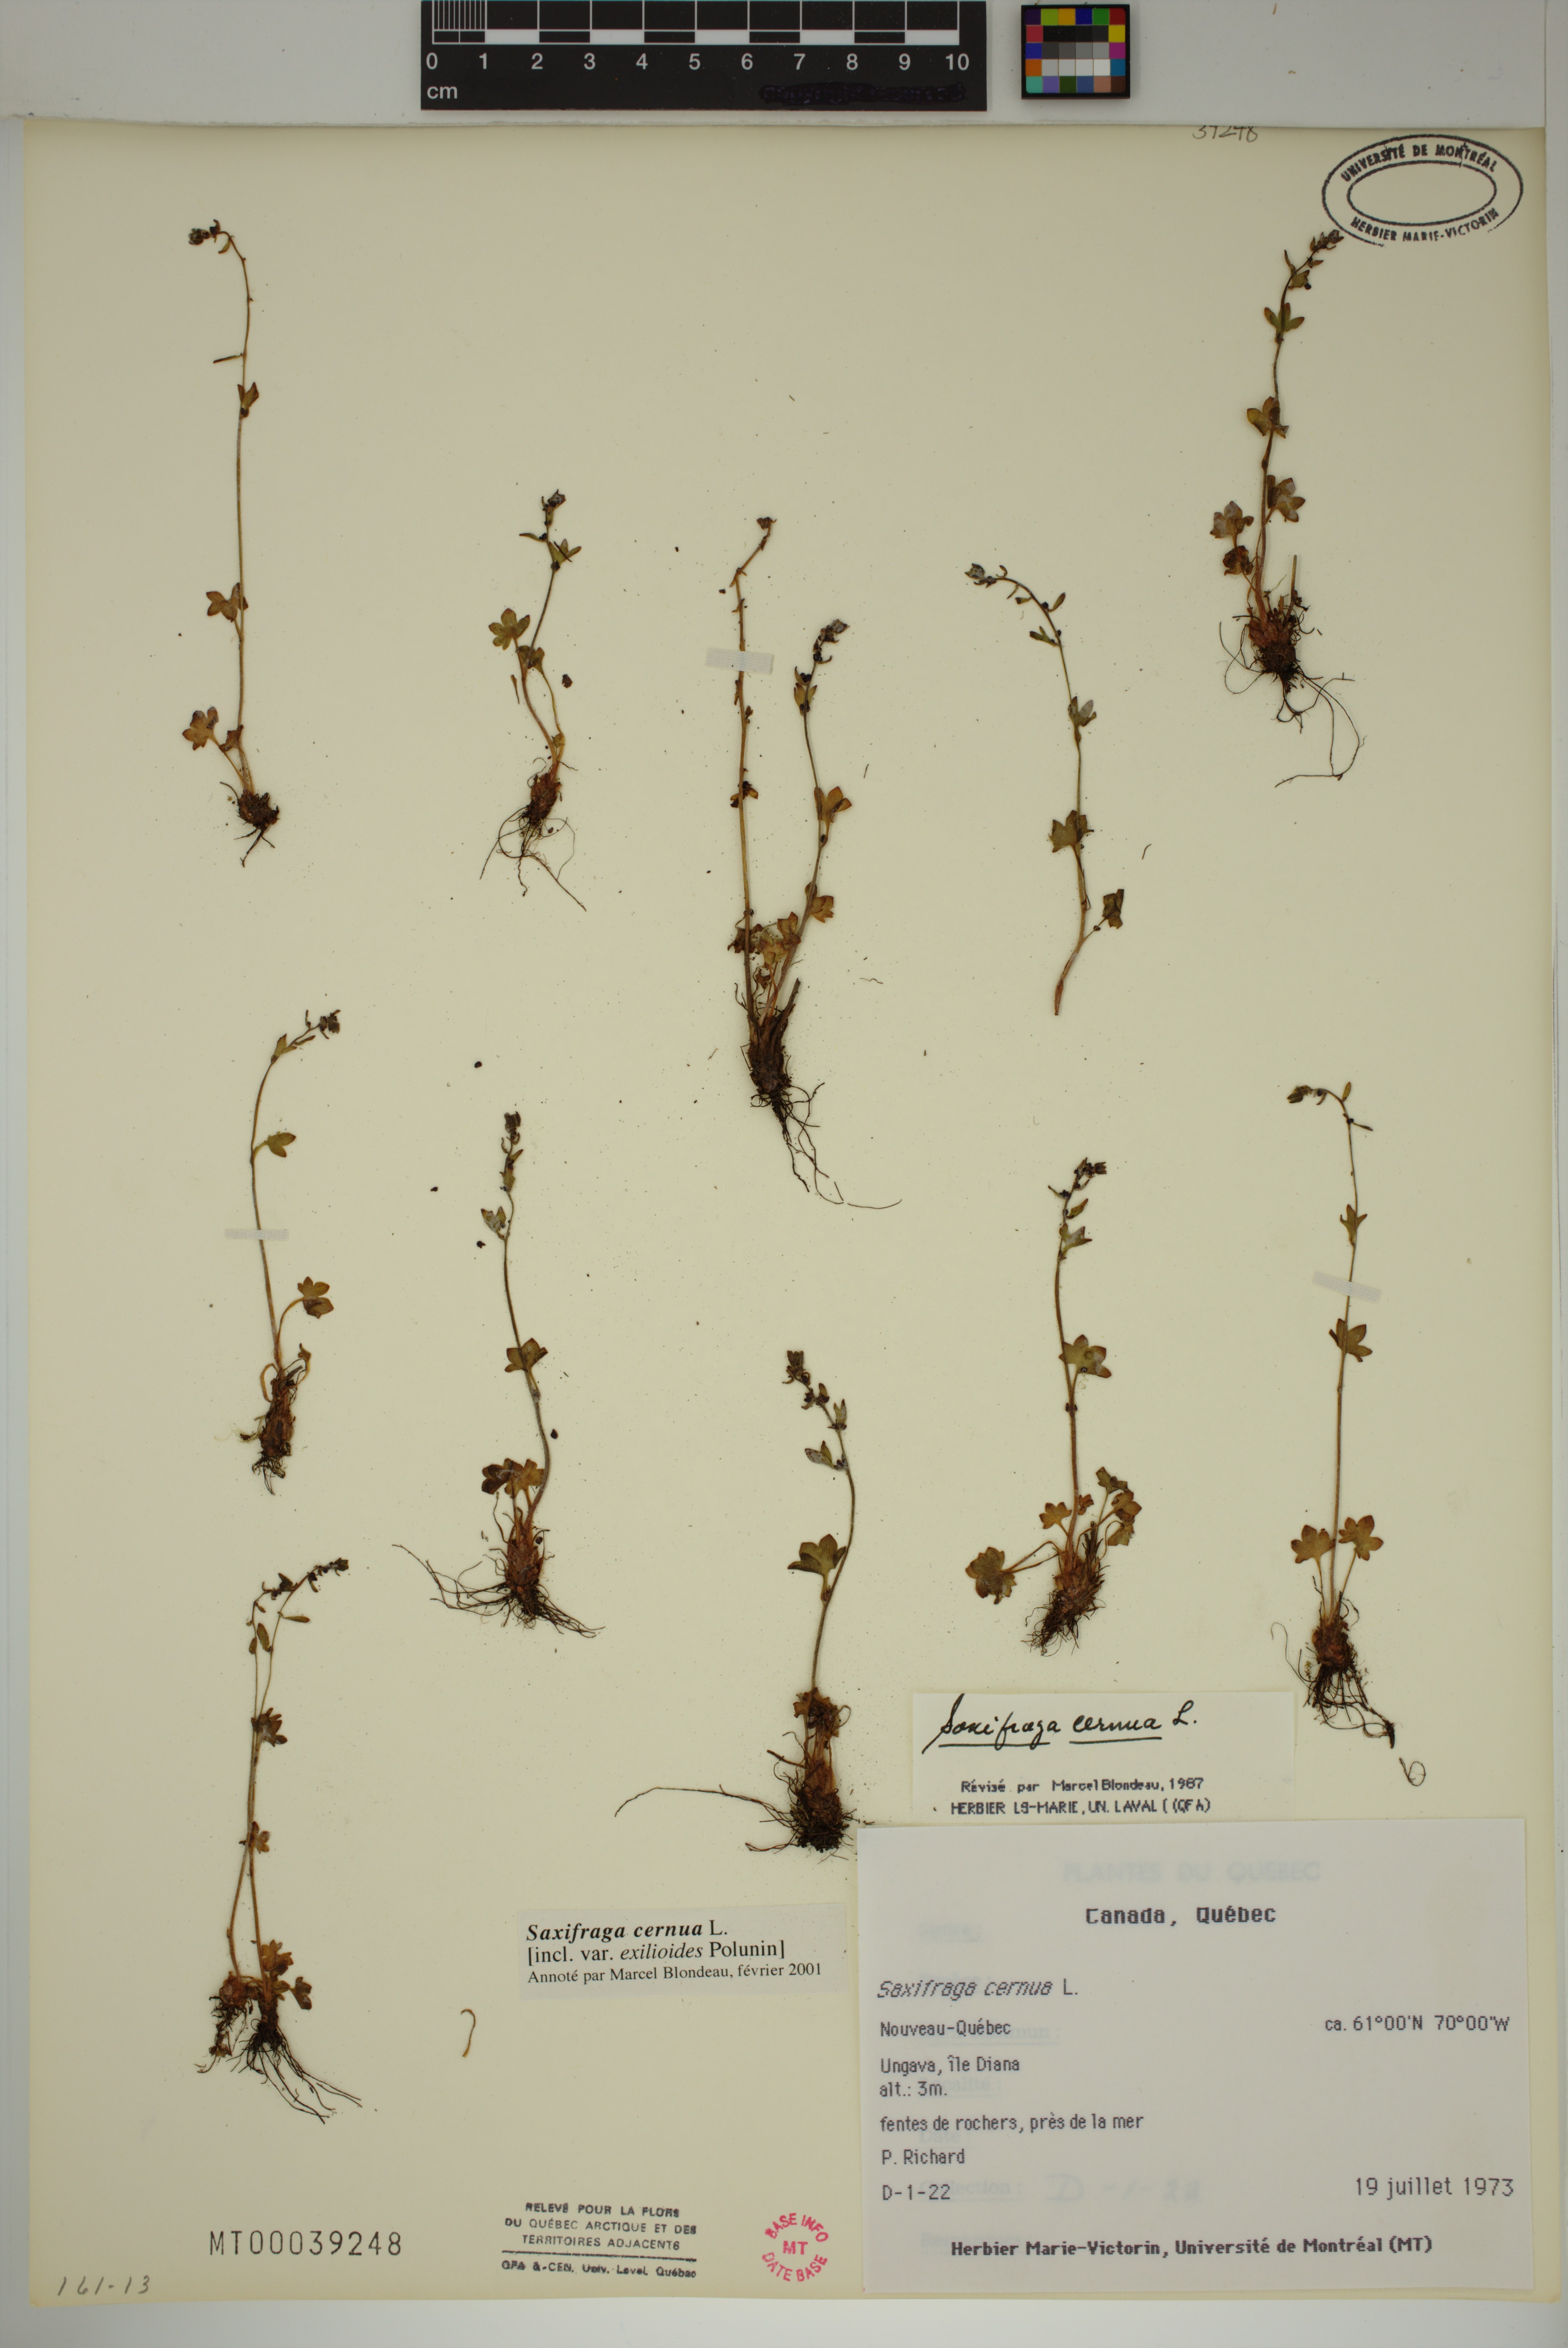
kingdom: Plantae
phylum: Tracheophyta
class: Magnoliopsida
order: Saxifragales
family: Saxifragaceae
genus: Saxifraga
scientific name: Saxifraga cernua
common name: Drooping saxifrage
